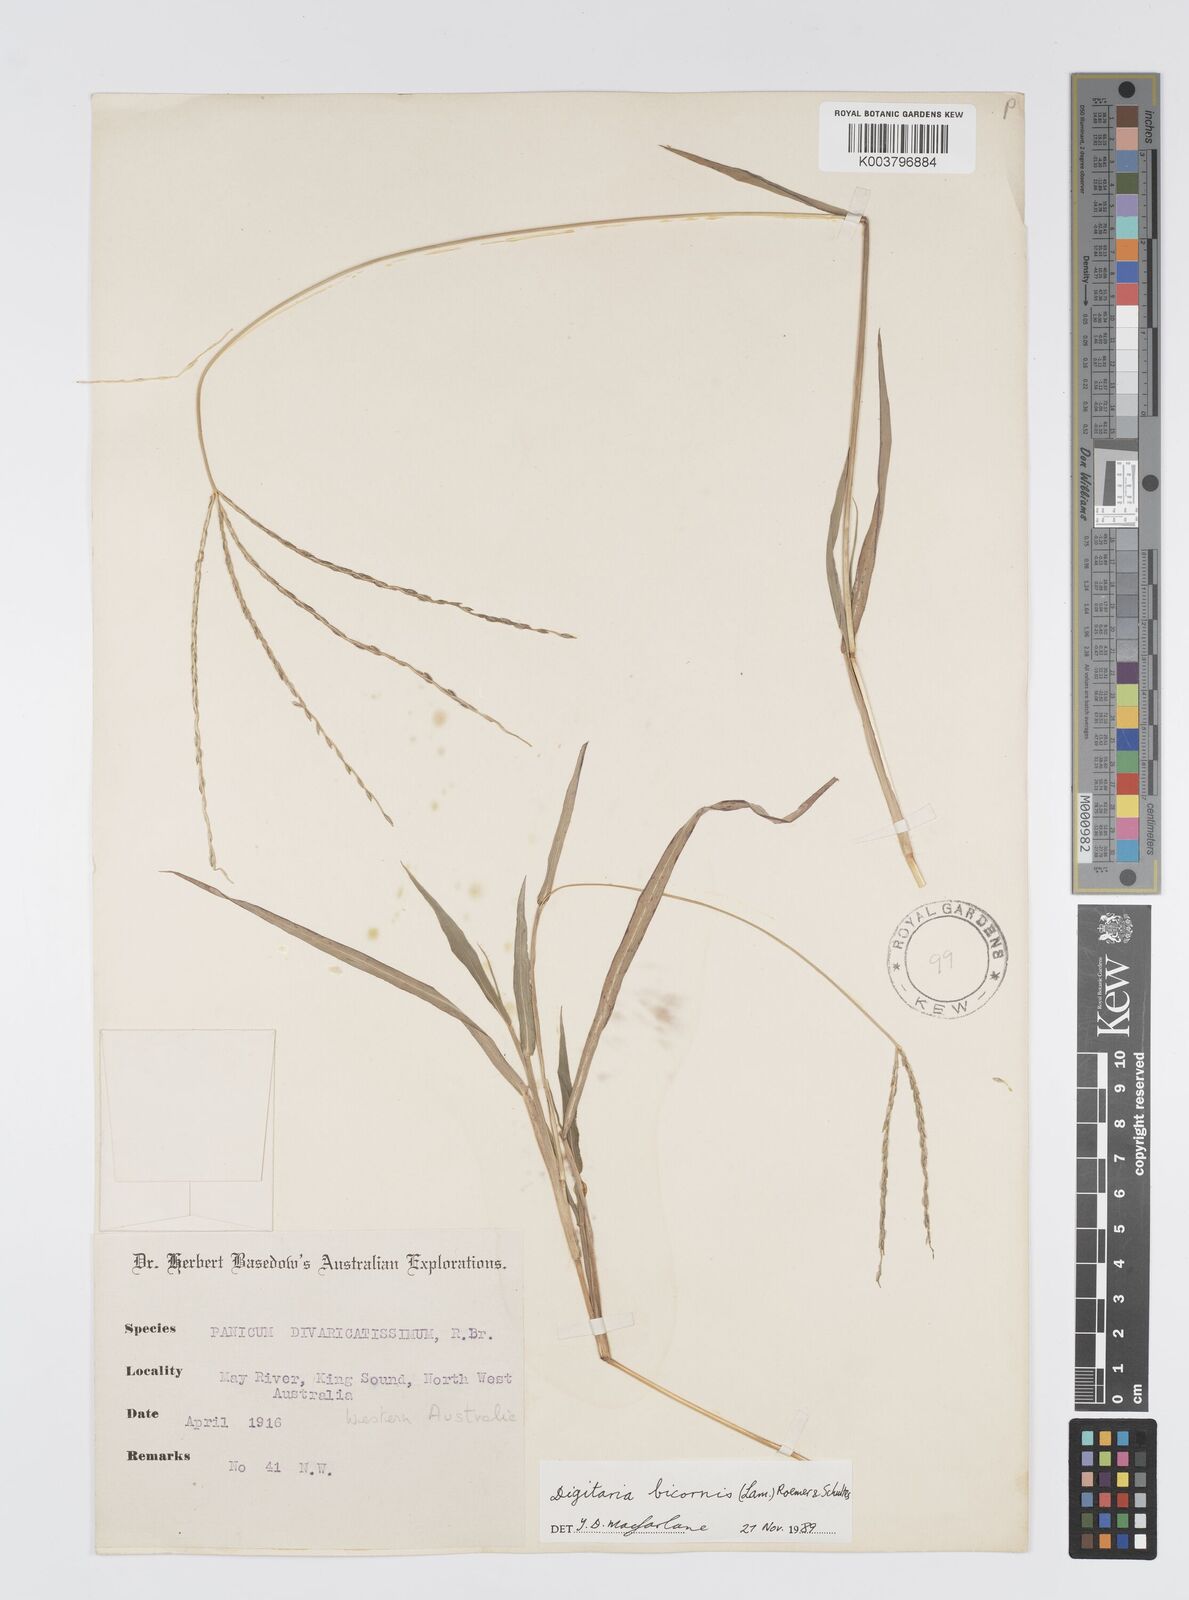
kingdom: Plantae
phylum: Tracheophyta
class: Liliopsida
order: Poales
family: Poaceae
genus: Digitaria
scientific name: Digitaria bicornis
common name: Asian crabgrass
